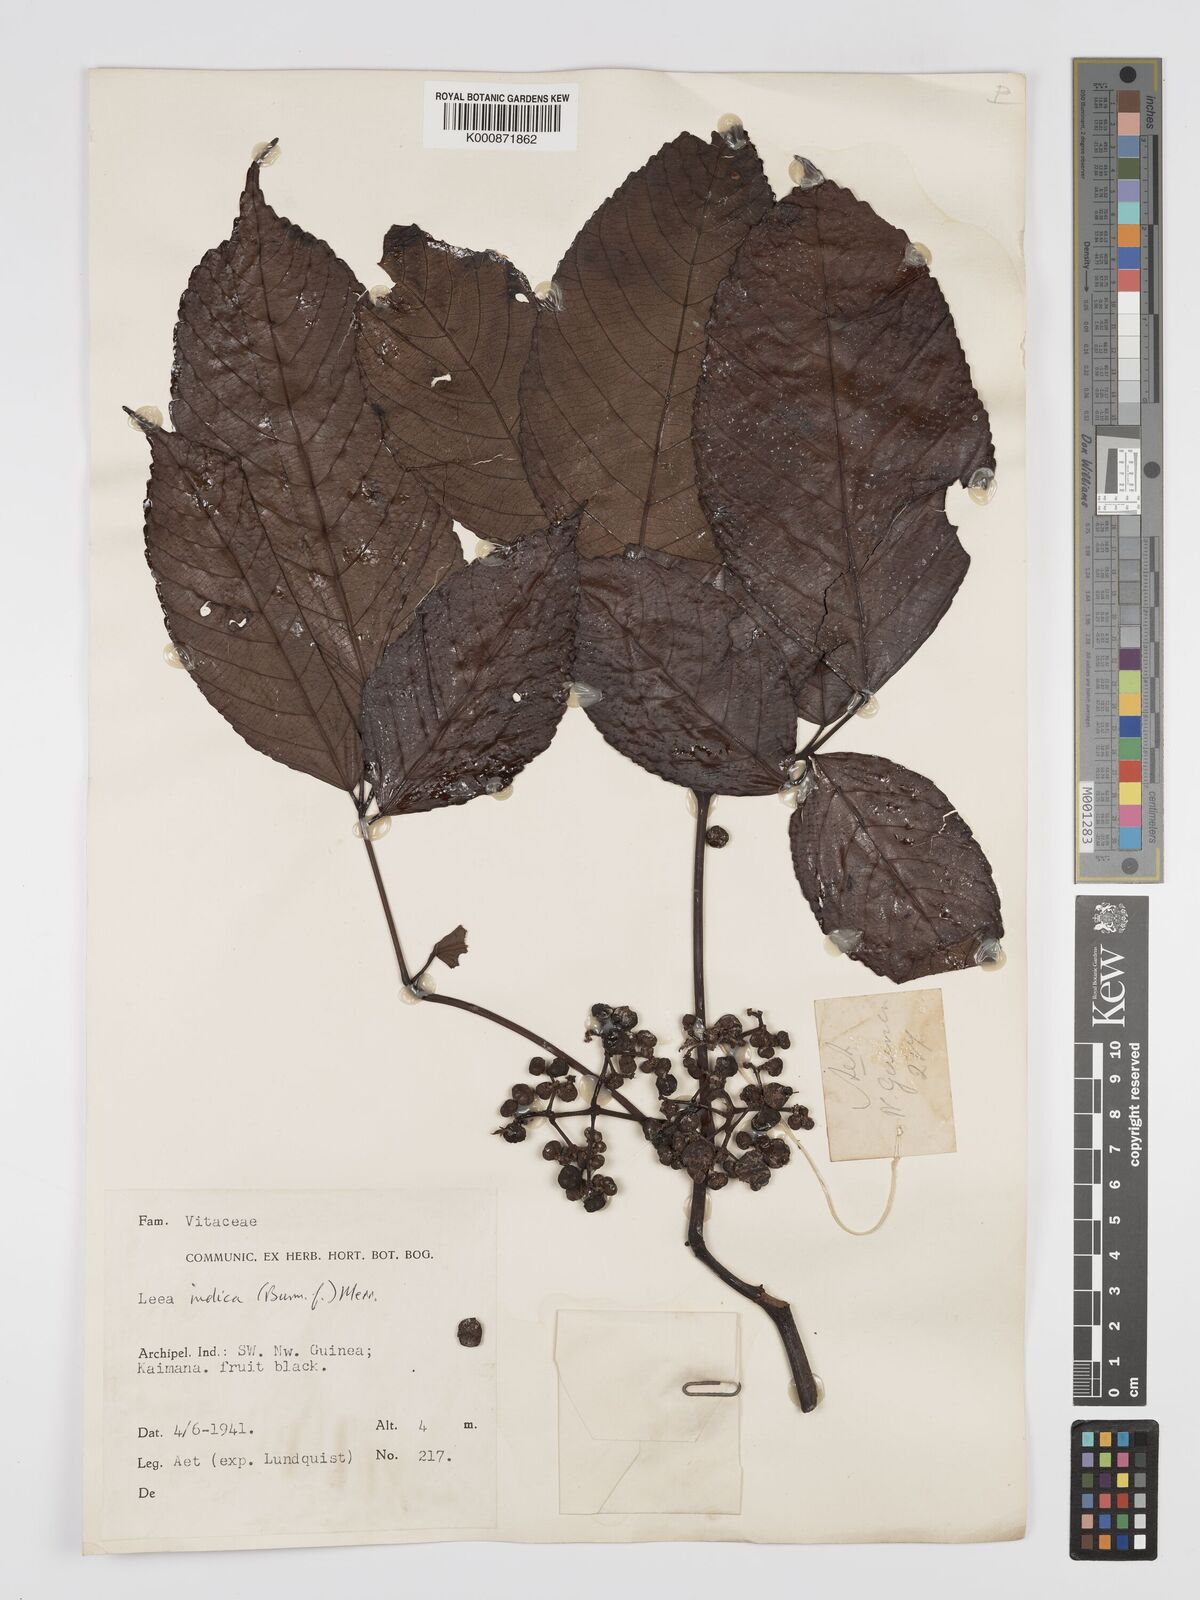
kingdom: Plantae
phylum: Tracheophyta
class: Magnoliopsida
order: Vitales
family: Vitaceae
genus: Leea
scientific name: Leea indica
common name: Bandicoot-berry
